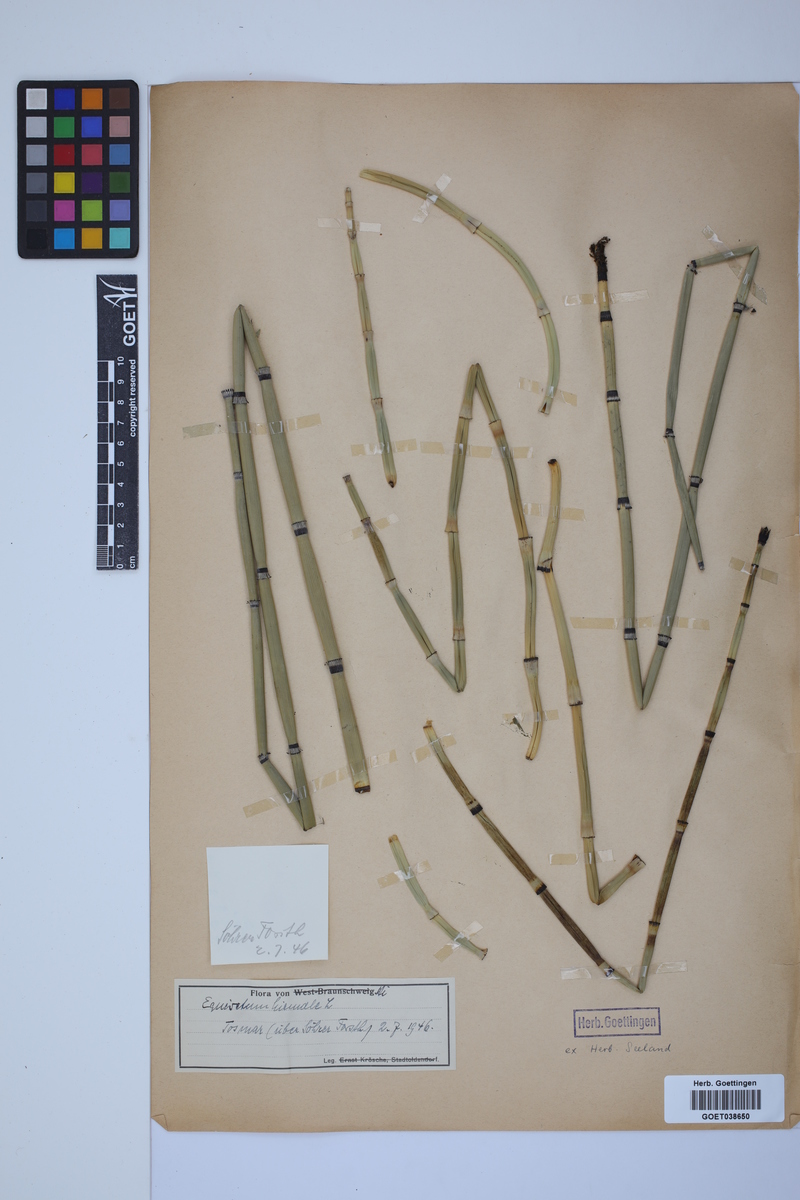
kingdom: Plantae
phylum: Tracheophyta
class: Polypodiopsida
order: Equisetales
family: Equisetaceae
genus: Equisetum
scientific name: Equisetum hyemale
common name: Rough horsetail
